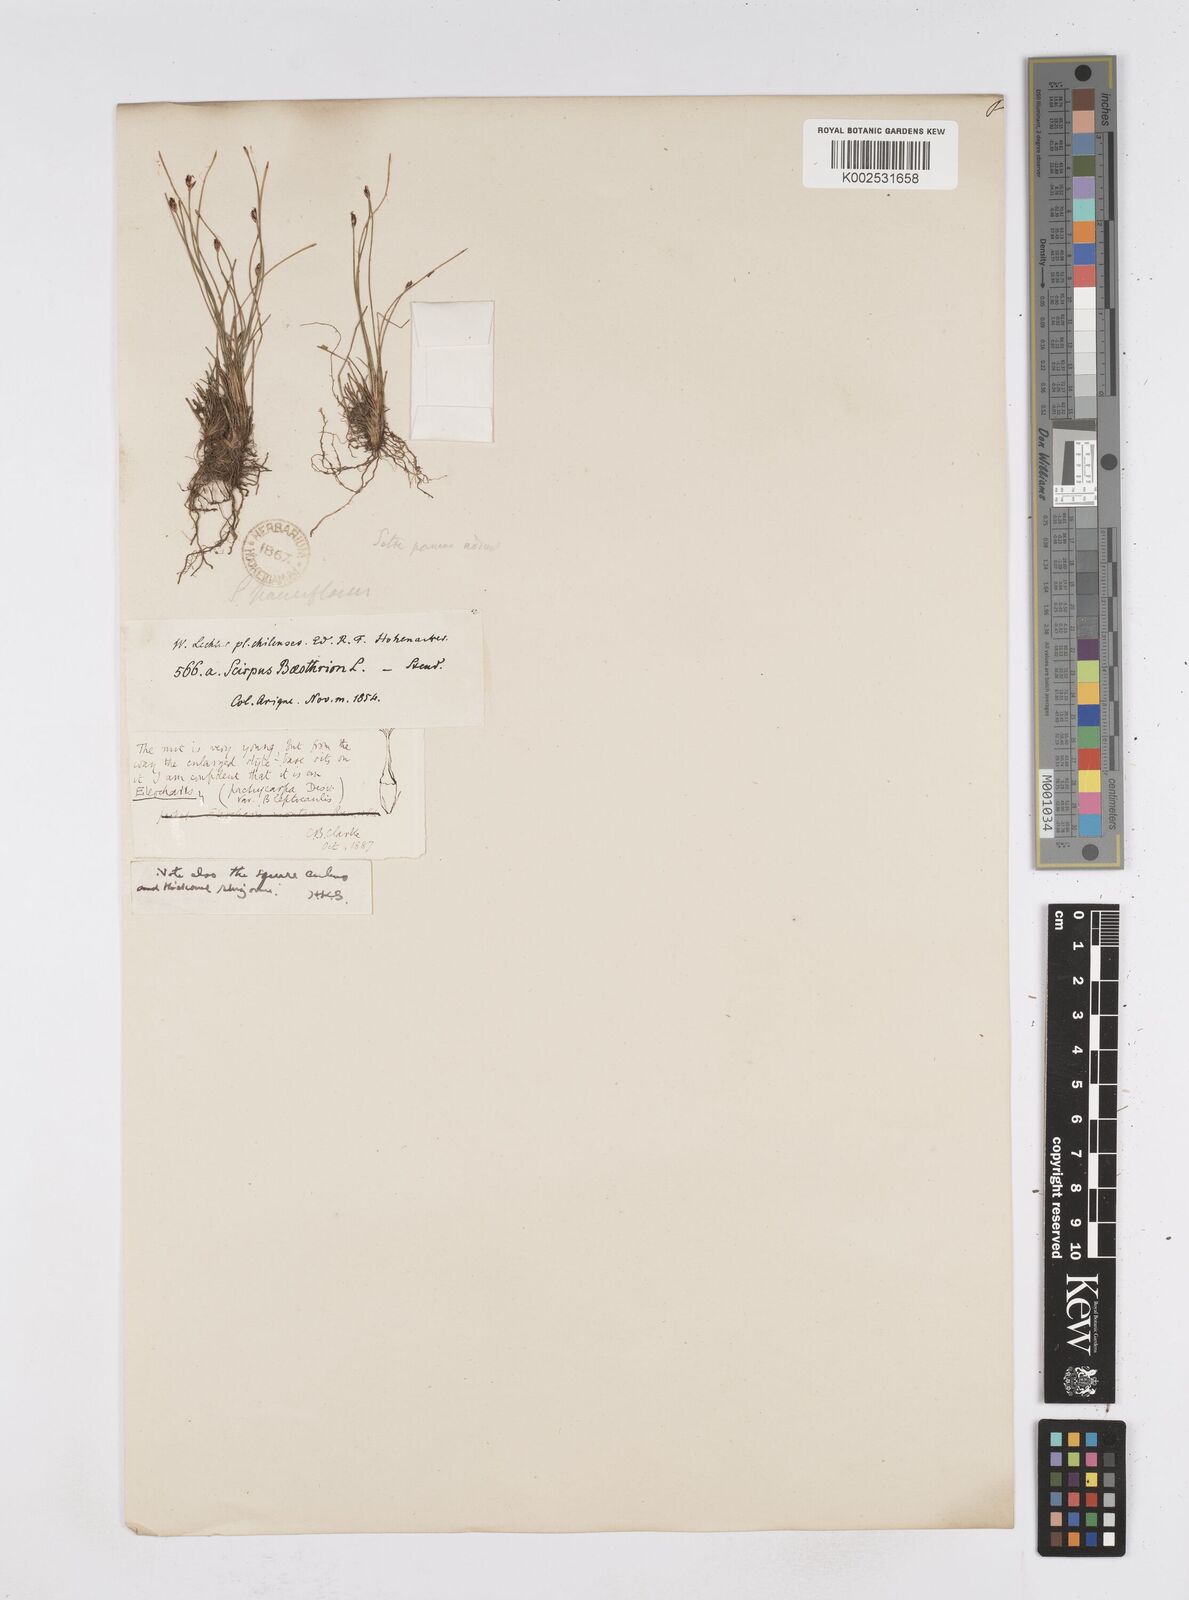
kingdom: Plantae
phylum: Tracheophyta
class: Liliopsida
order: Poales
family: Cyperaceae
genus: Eleocharis
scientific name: Eleocharis pachycarpa
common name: Black sand spikerush
